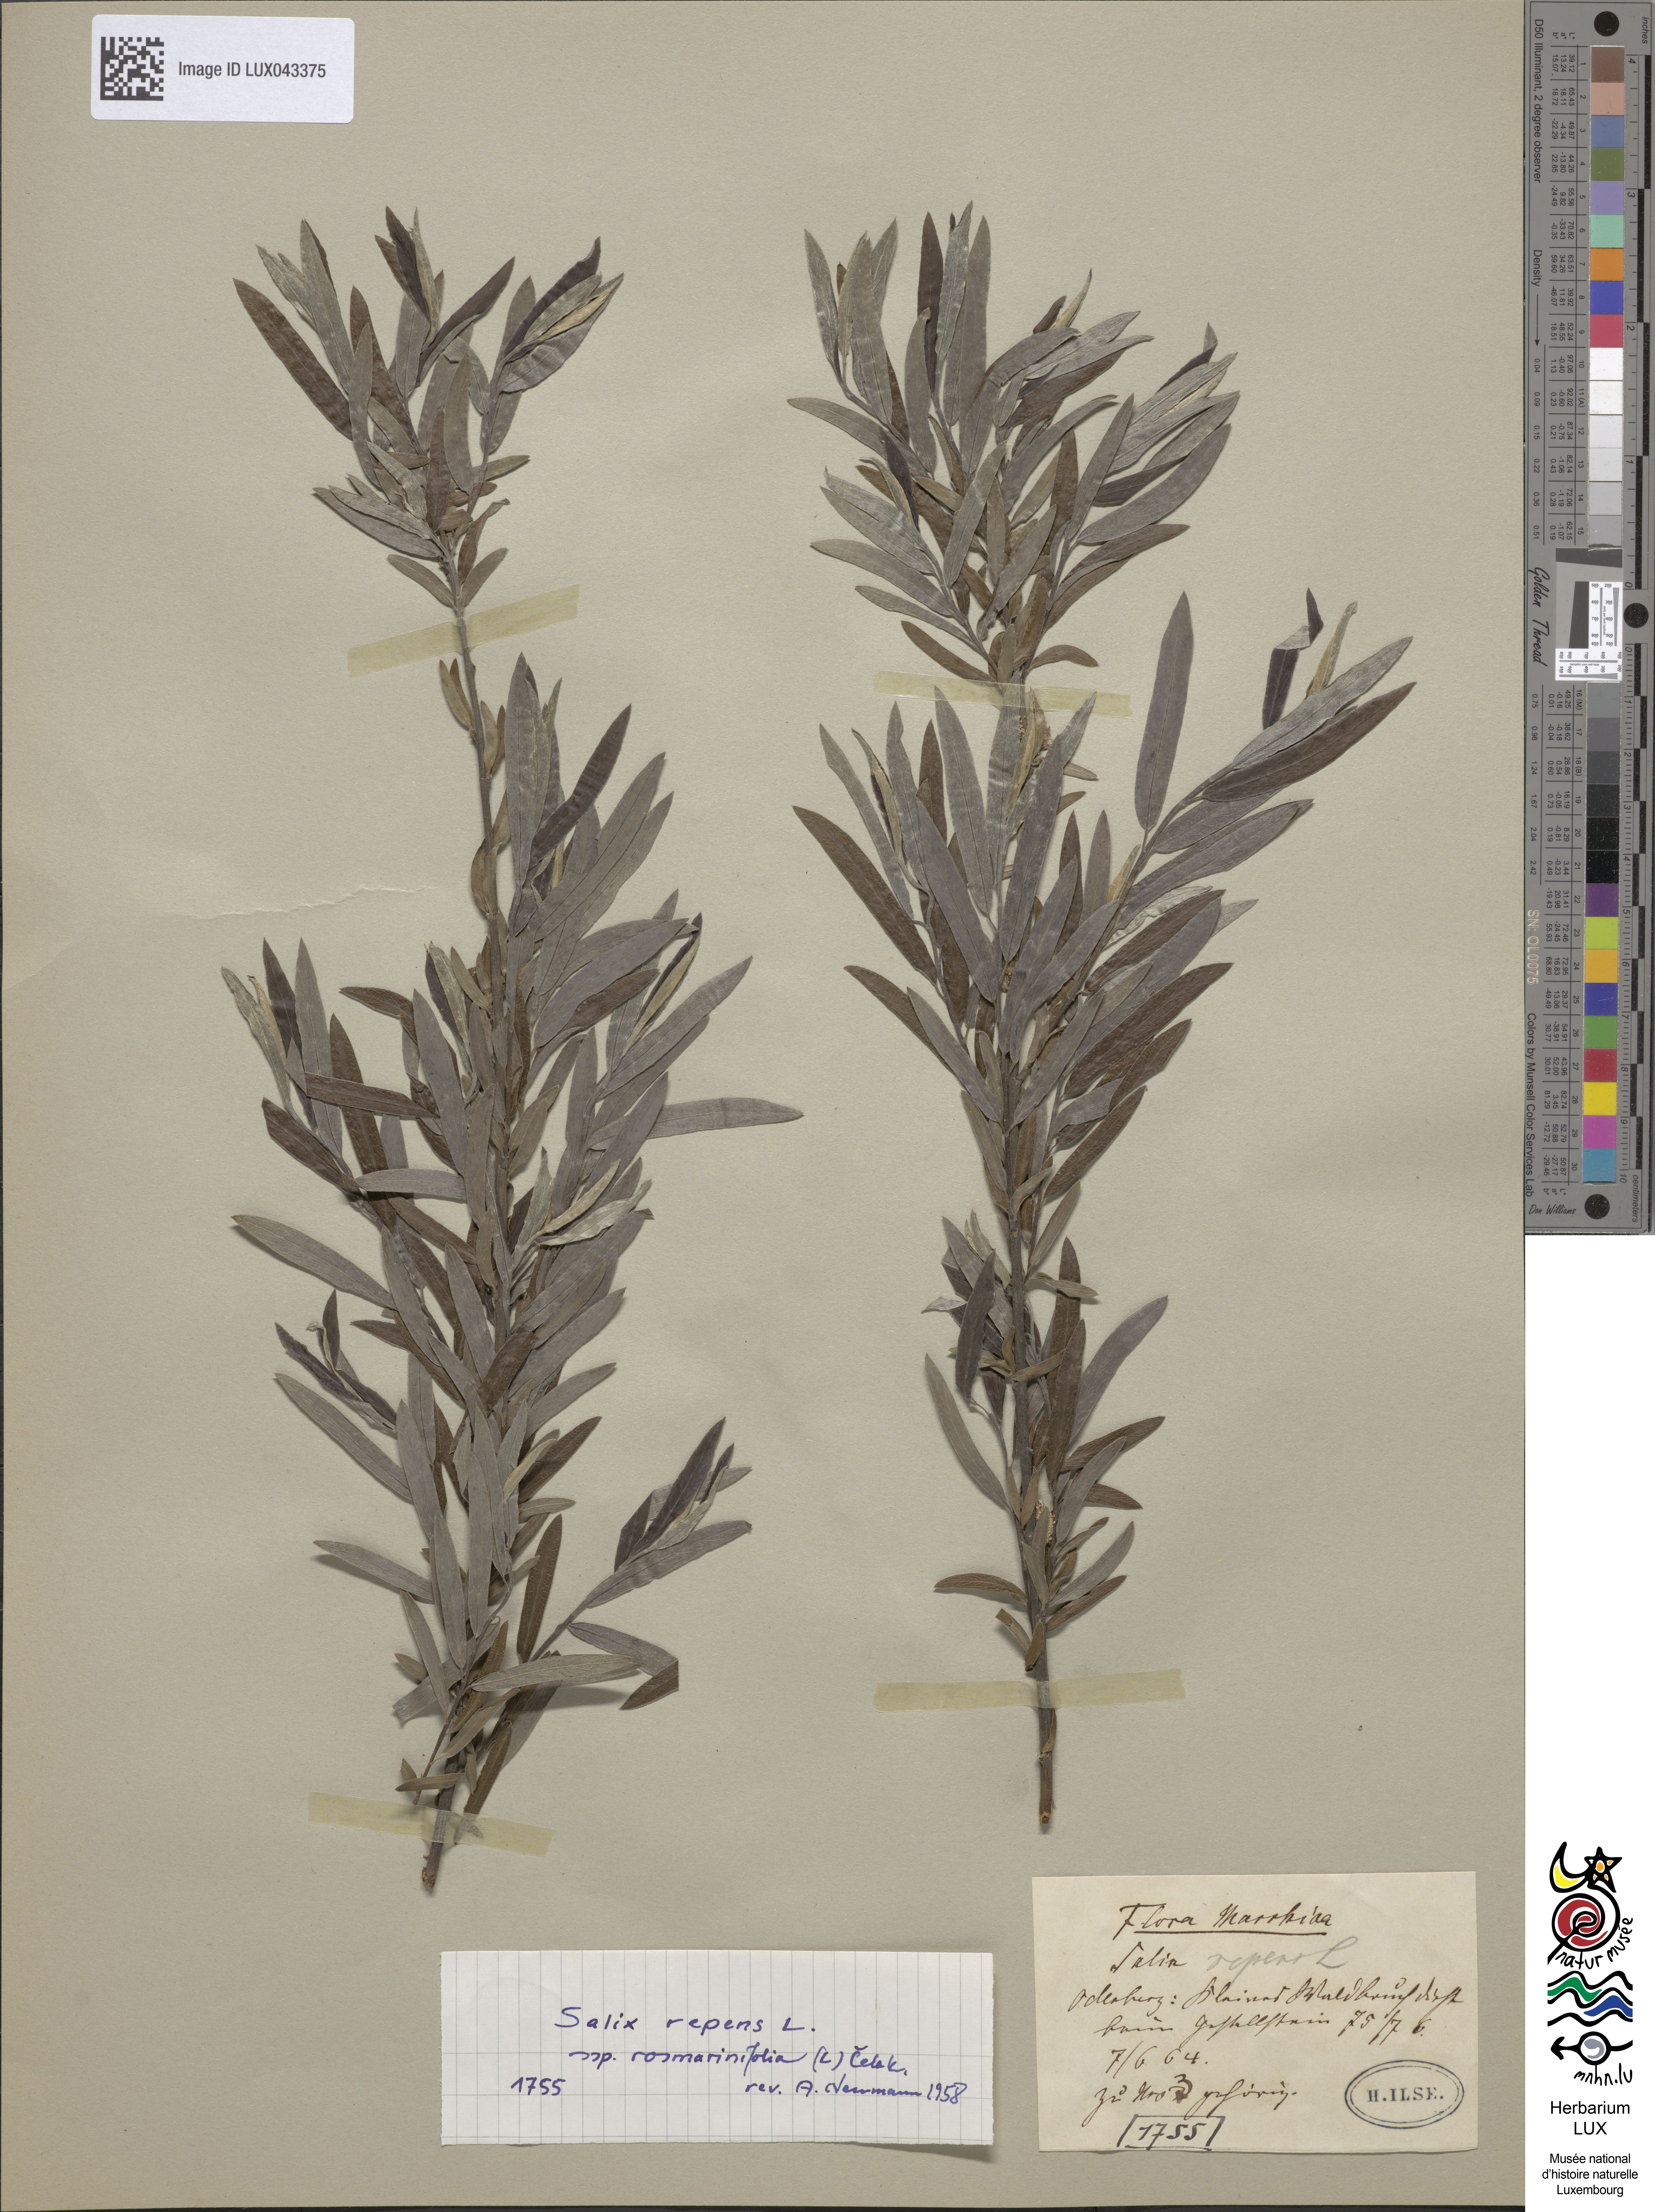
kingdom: Plantae
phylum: Tracheophyta
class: Magnoliopsida
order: Malpighiales
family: Salicaceae
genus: Salix
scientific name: Salix repens
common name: Creeping willow
